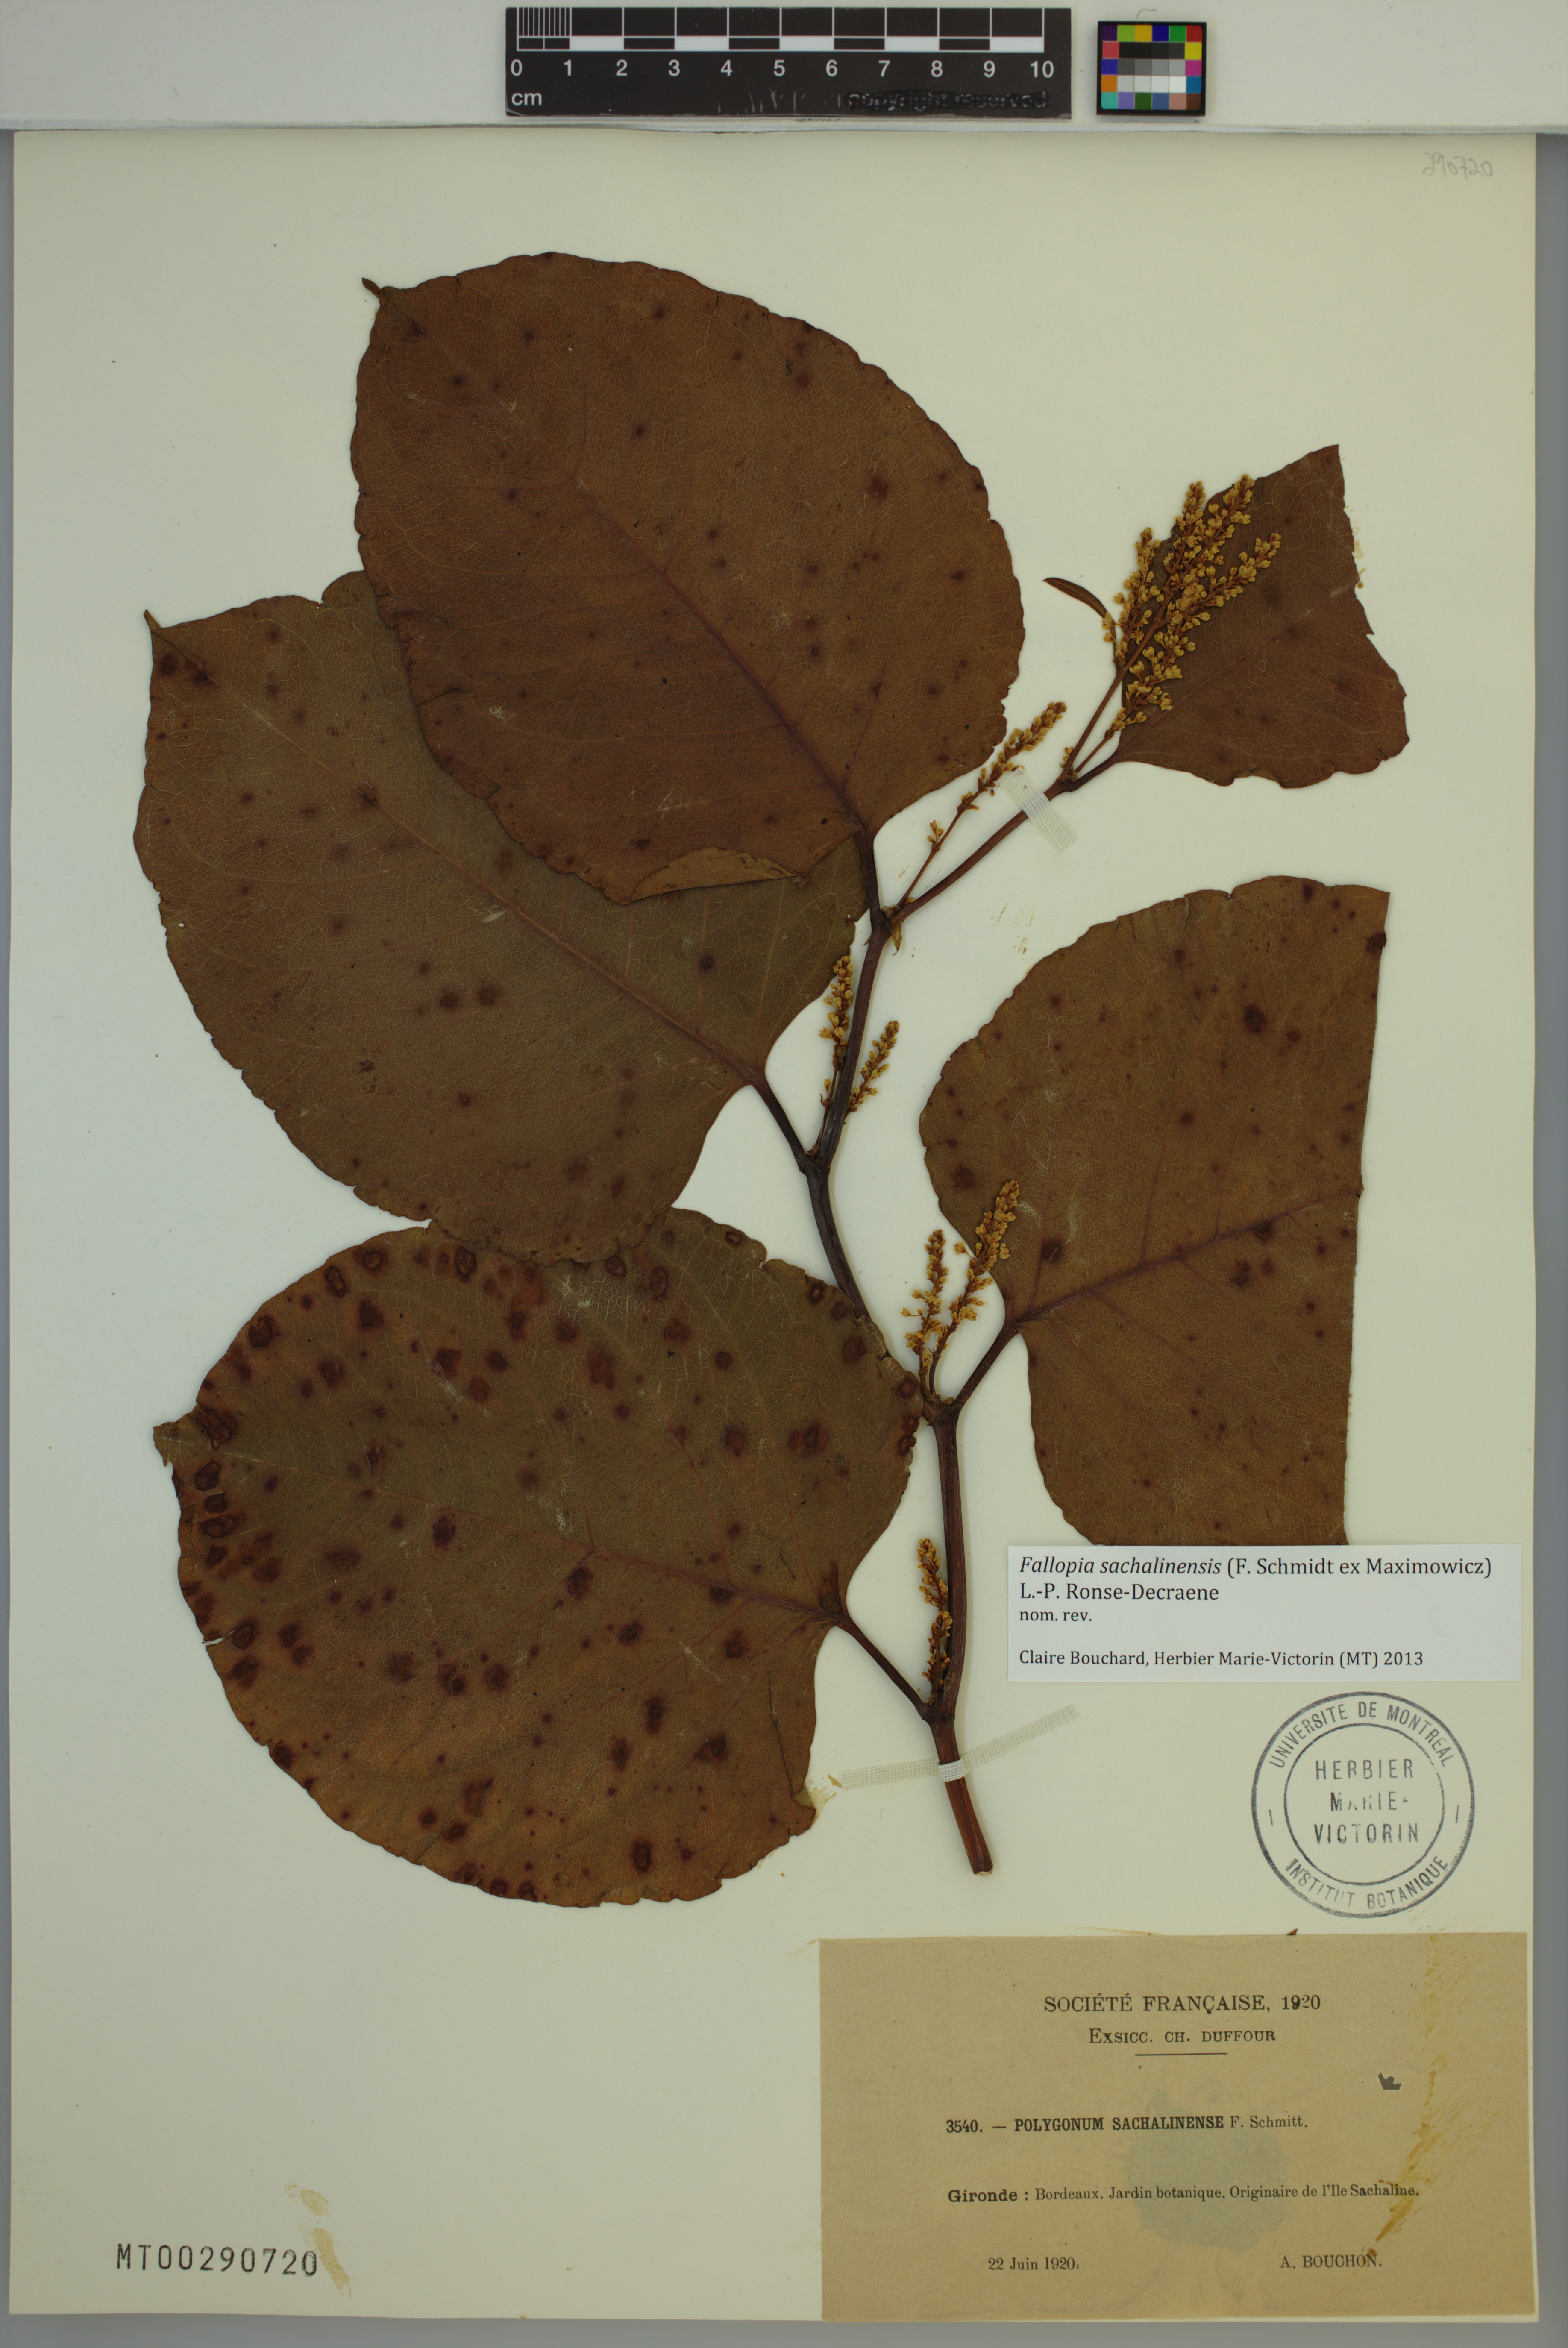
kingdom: Plantae
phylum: Tracheophyta
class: Magnoliopsida
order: Caryophyllales
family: Polygonaceae
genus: Reynoutria
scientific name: Reynoutria sachalinensis
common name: Giant knotweed
